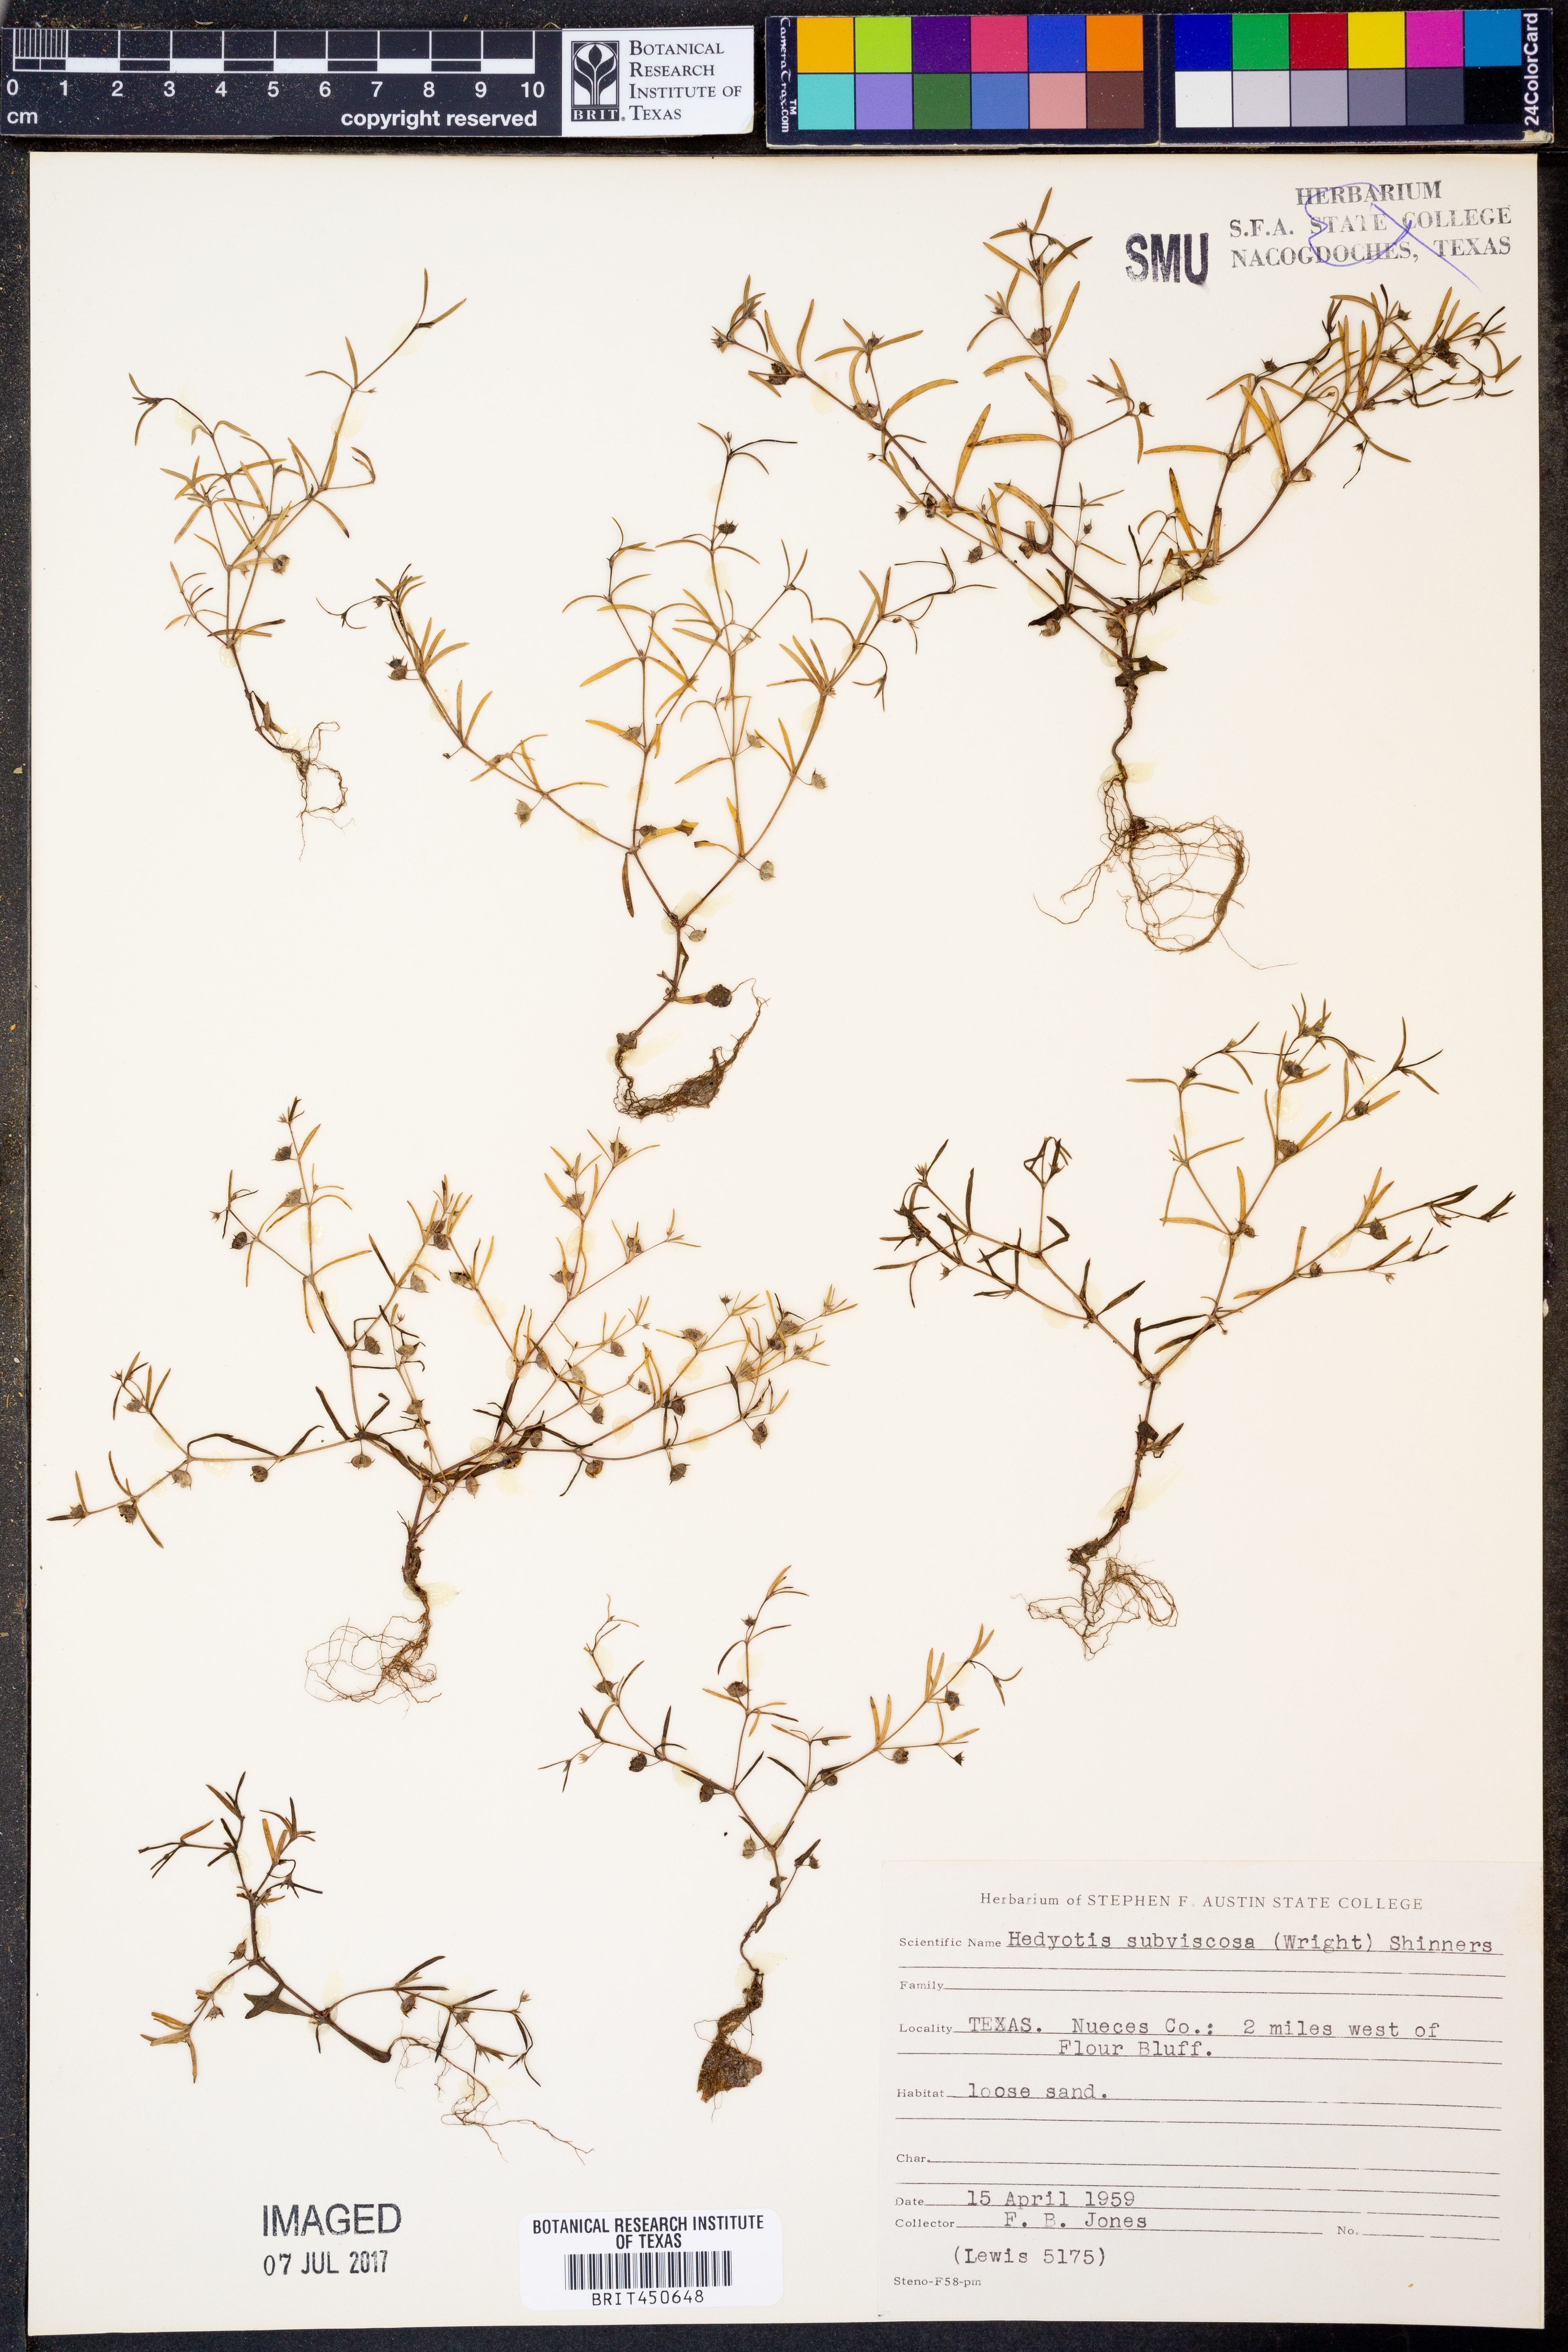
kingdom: Plantae
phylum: Tracheophyta
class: Magnoliopsida
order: Gentianales
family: Rubiaceae
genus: Houstonia
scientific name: Houstonia subviscosa
